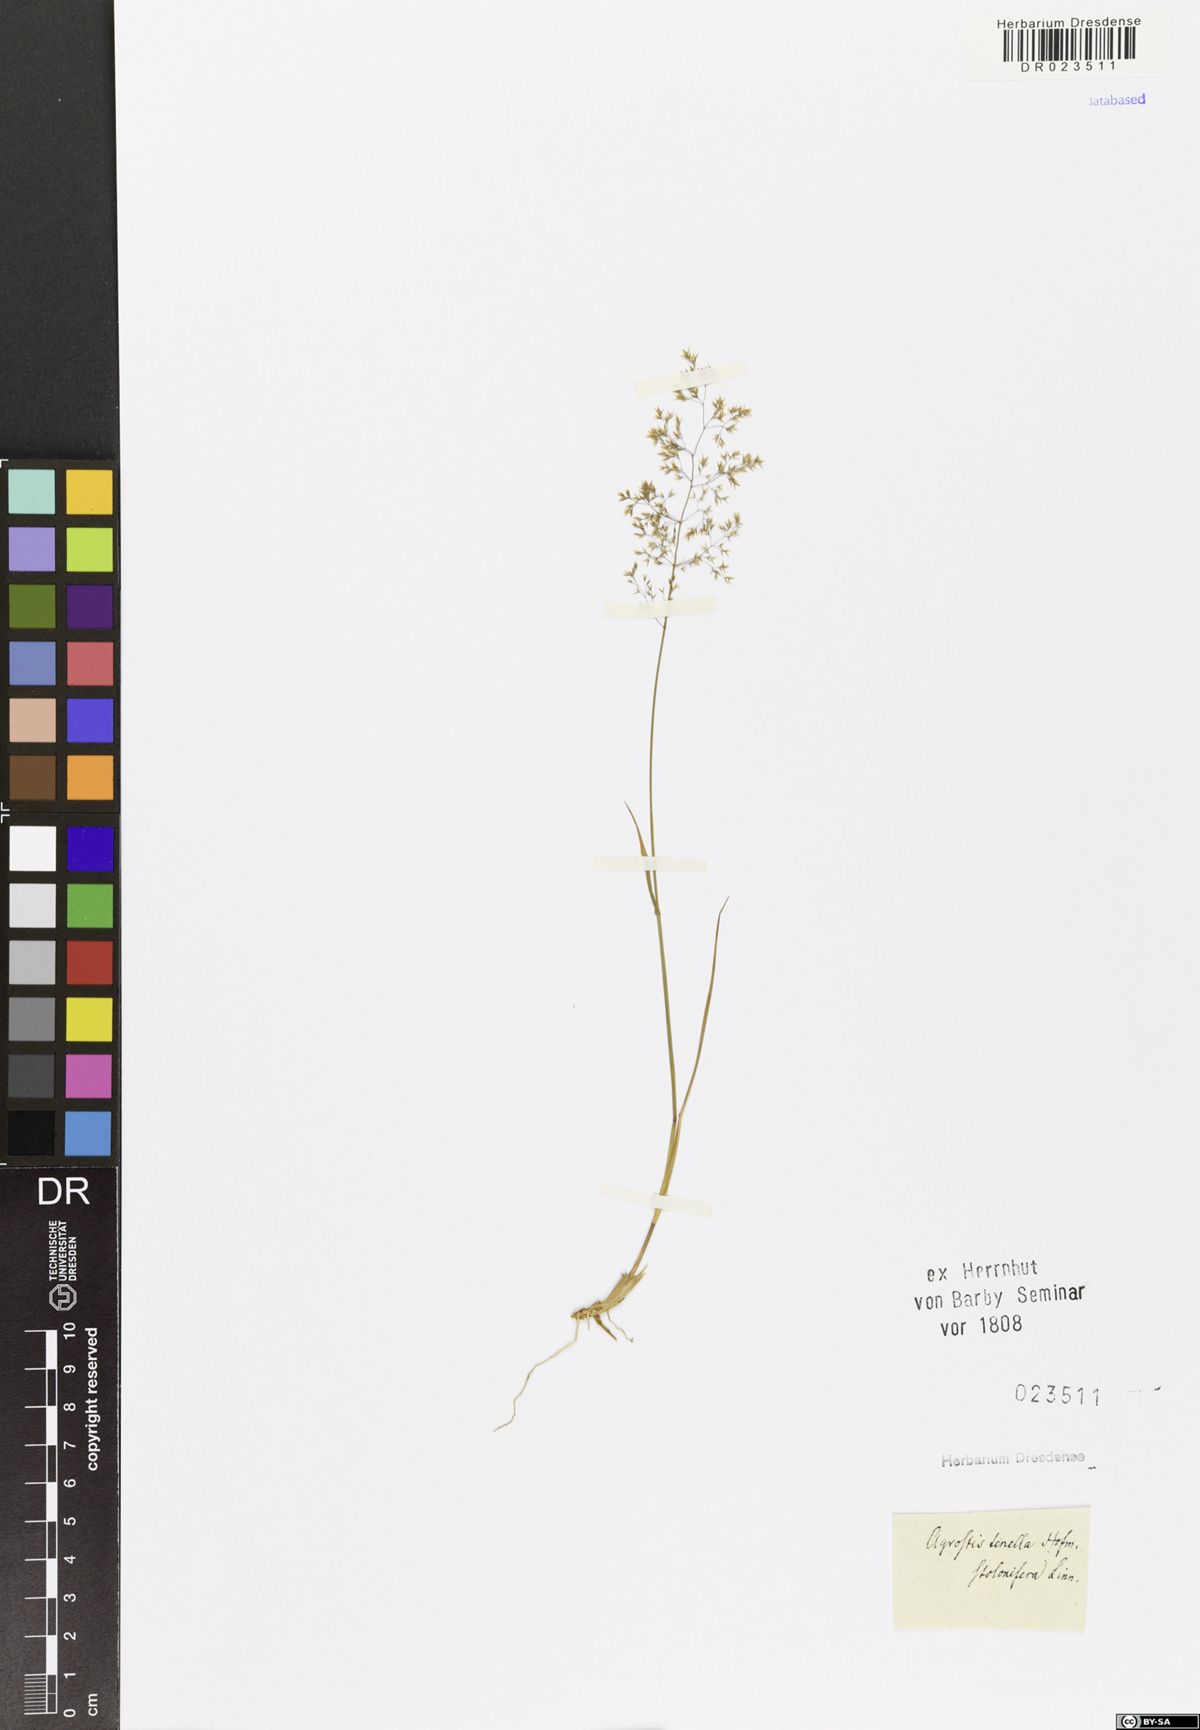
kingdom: Plantae
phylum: Tracheophyta
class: Liliopsida
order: Poales
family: Poaceae
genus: Agrostis
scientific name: Agrostis stolonifera
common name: Creeping bentgrass
